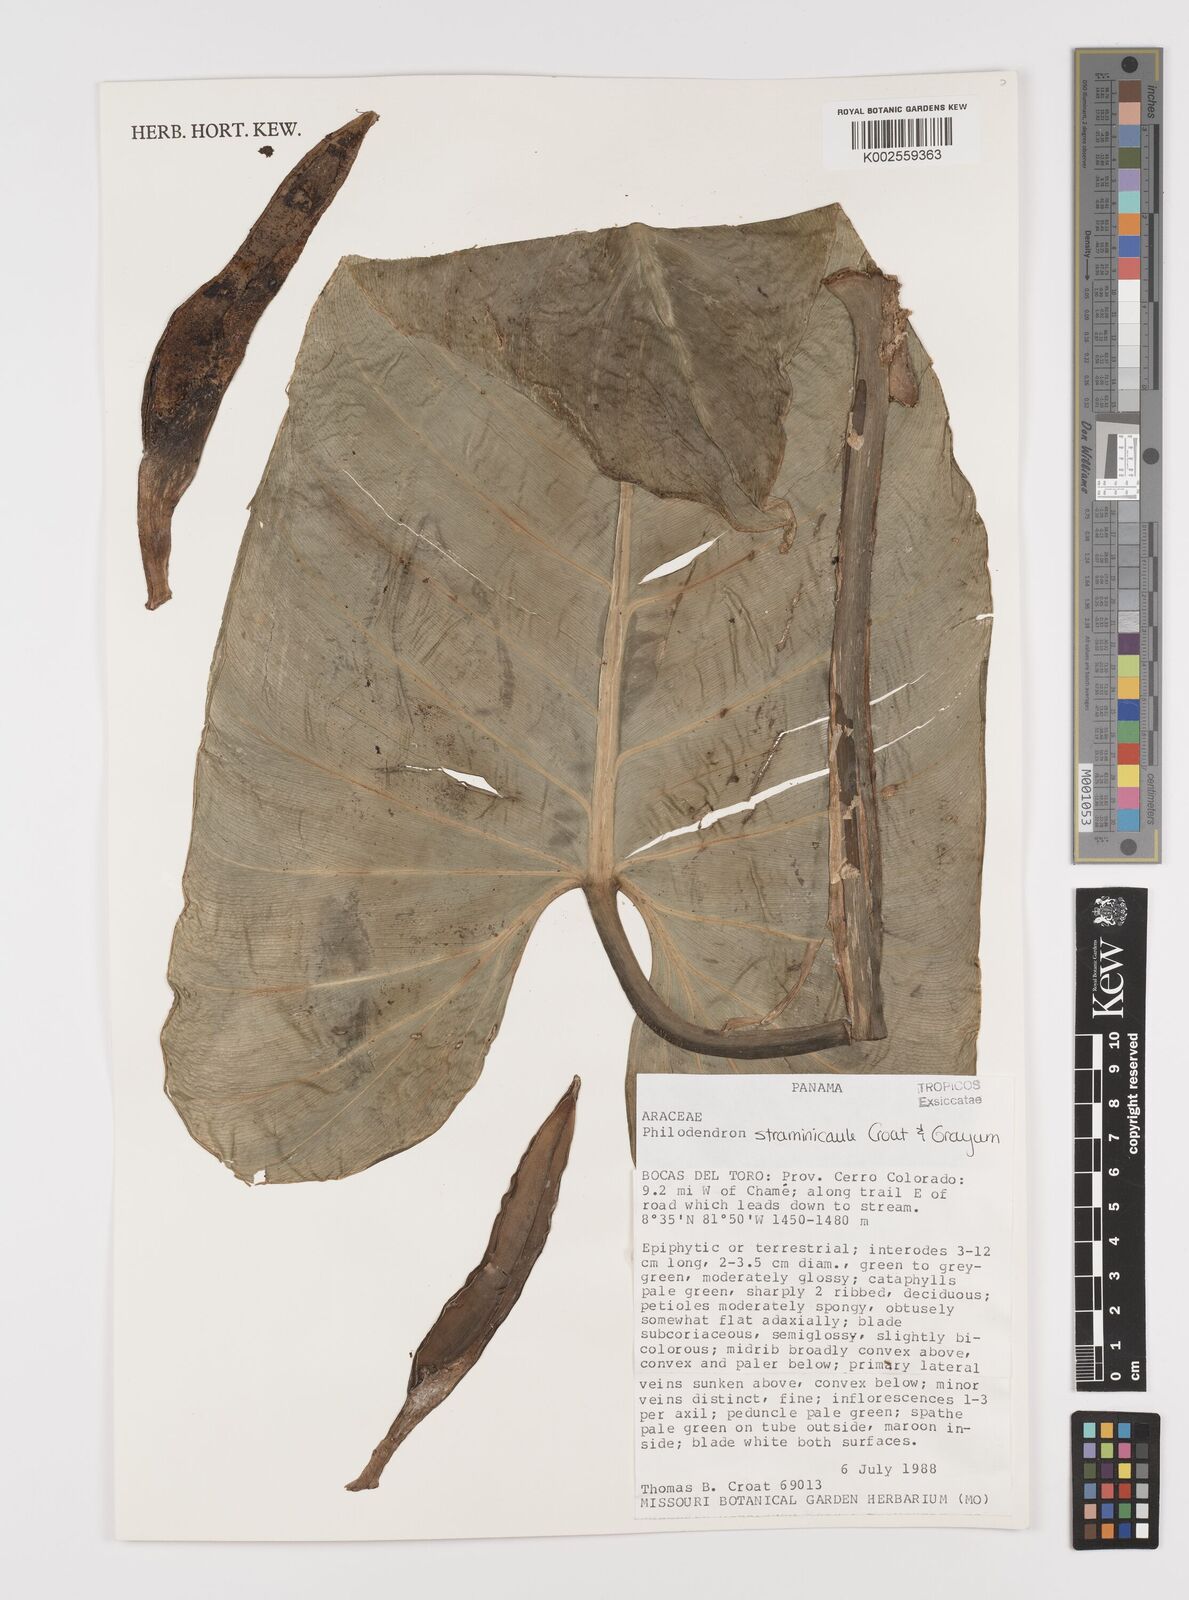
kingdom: Plantae
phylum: Tracheophyta
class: Liliopsida
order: Alismatales
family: Araceae
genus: Philodendron
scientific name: Philodendron straminicaule
